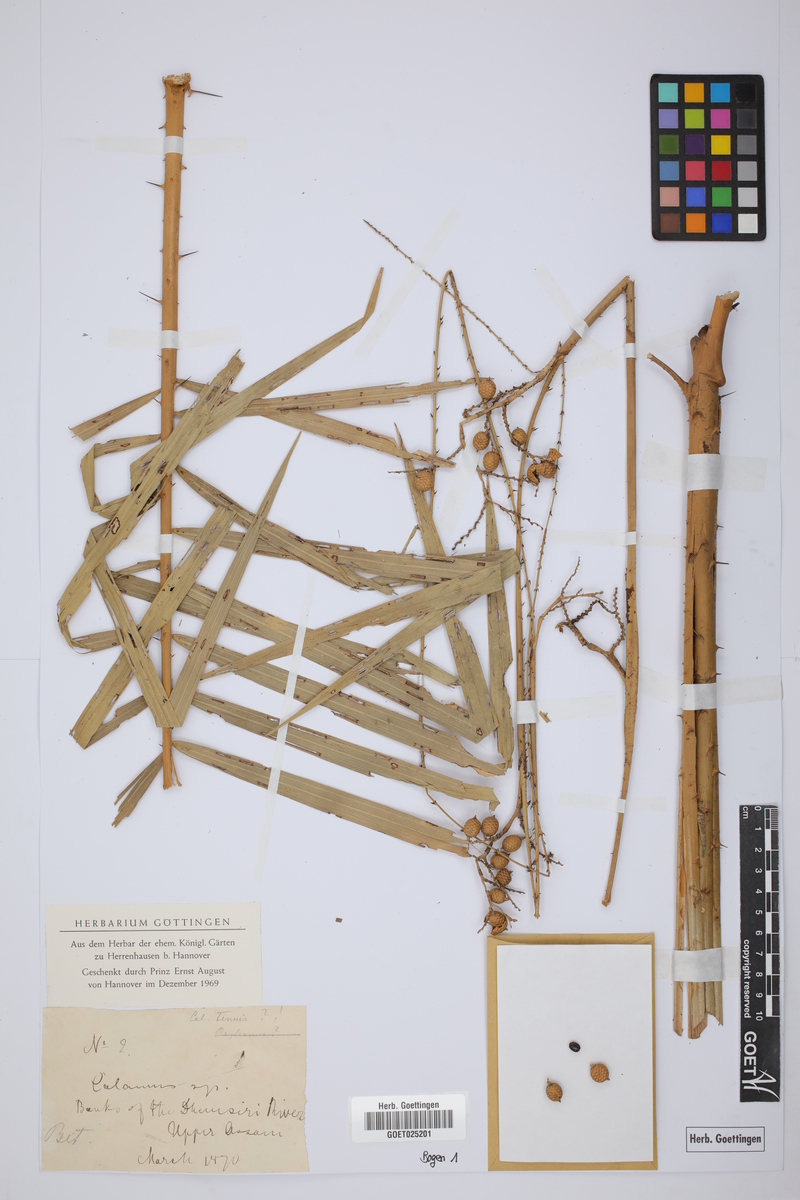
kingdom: Plantae
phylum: Tracheophyta
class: Liliopsida
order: Arecales
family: Arecaceae
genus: Calamus
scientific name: Calamus tenuis
